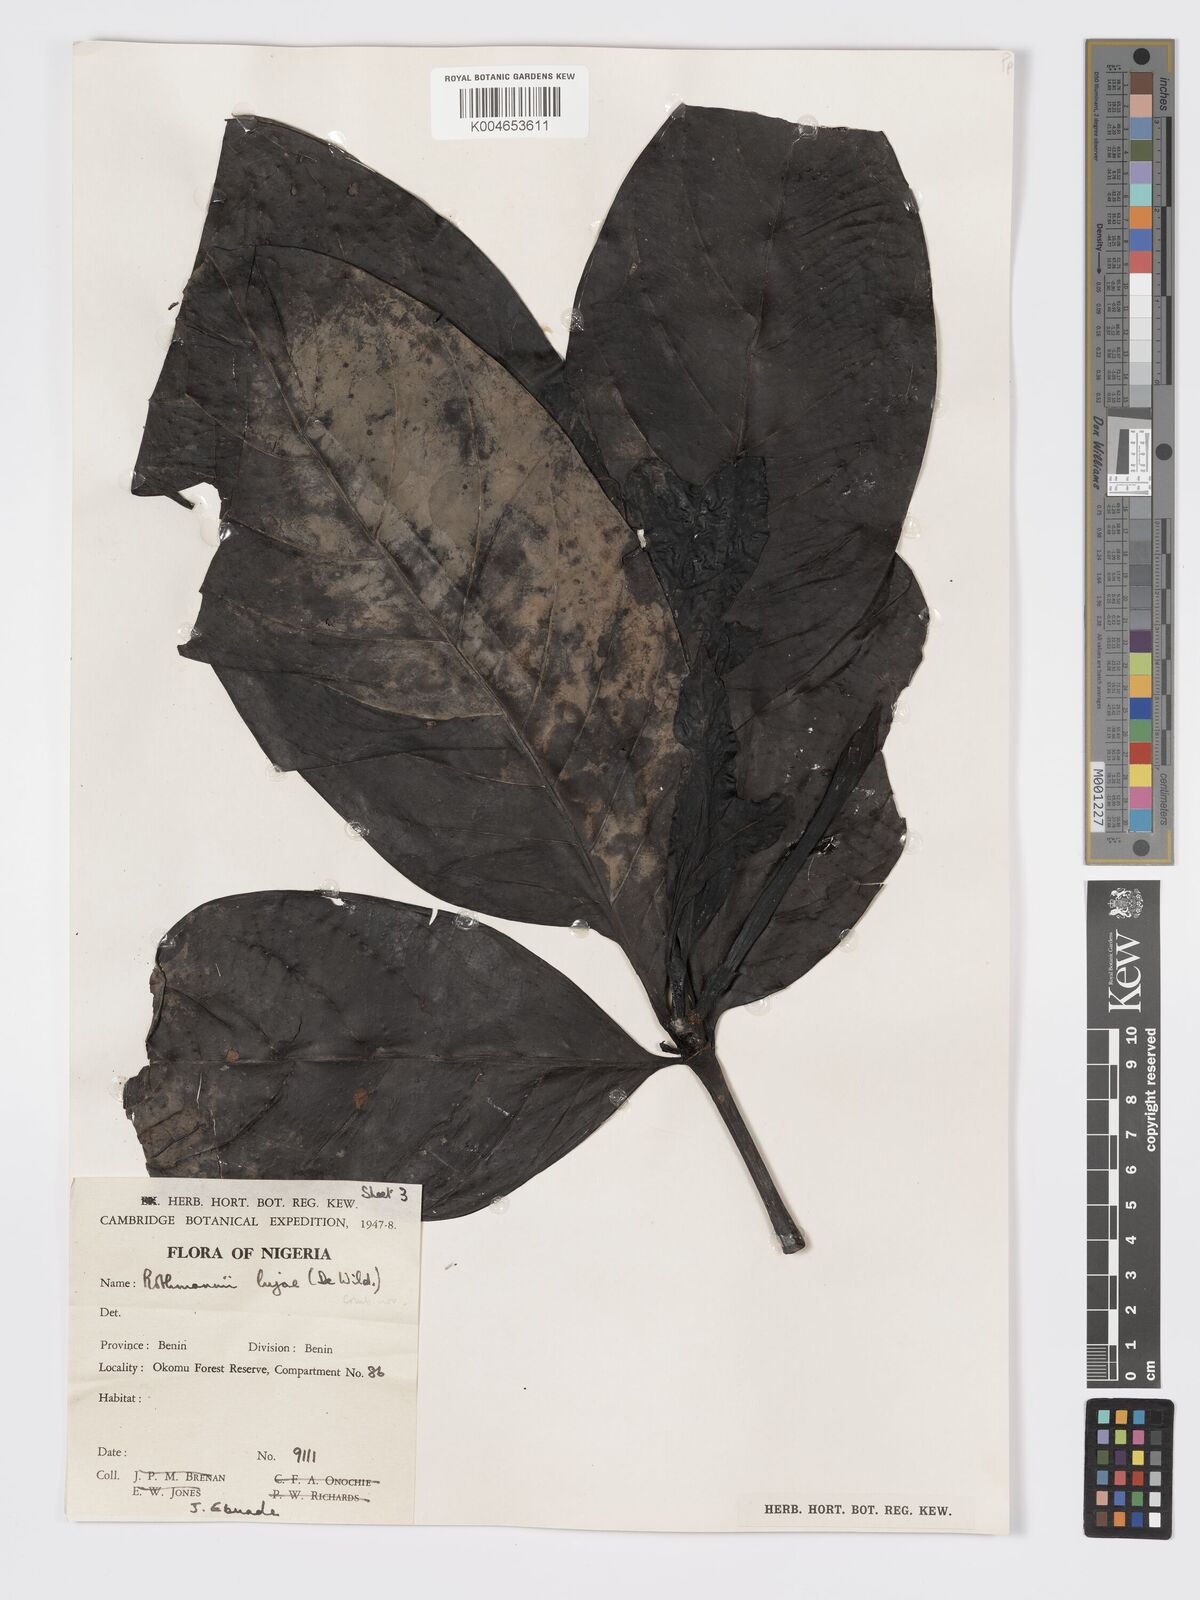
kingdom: Plantae
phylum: Tracheophyta
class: Magnoliopsida
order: Gentianales
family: Rubiaceae
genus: Rothmannia
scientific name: Rothmannia lujae
